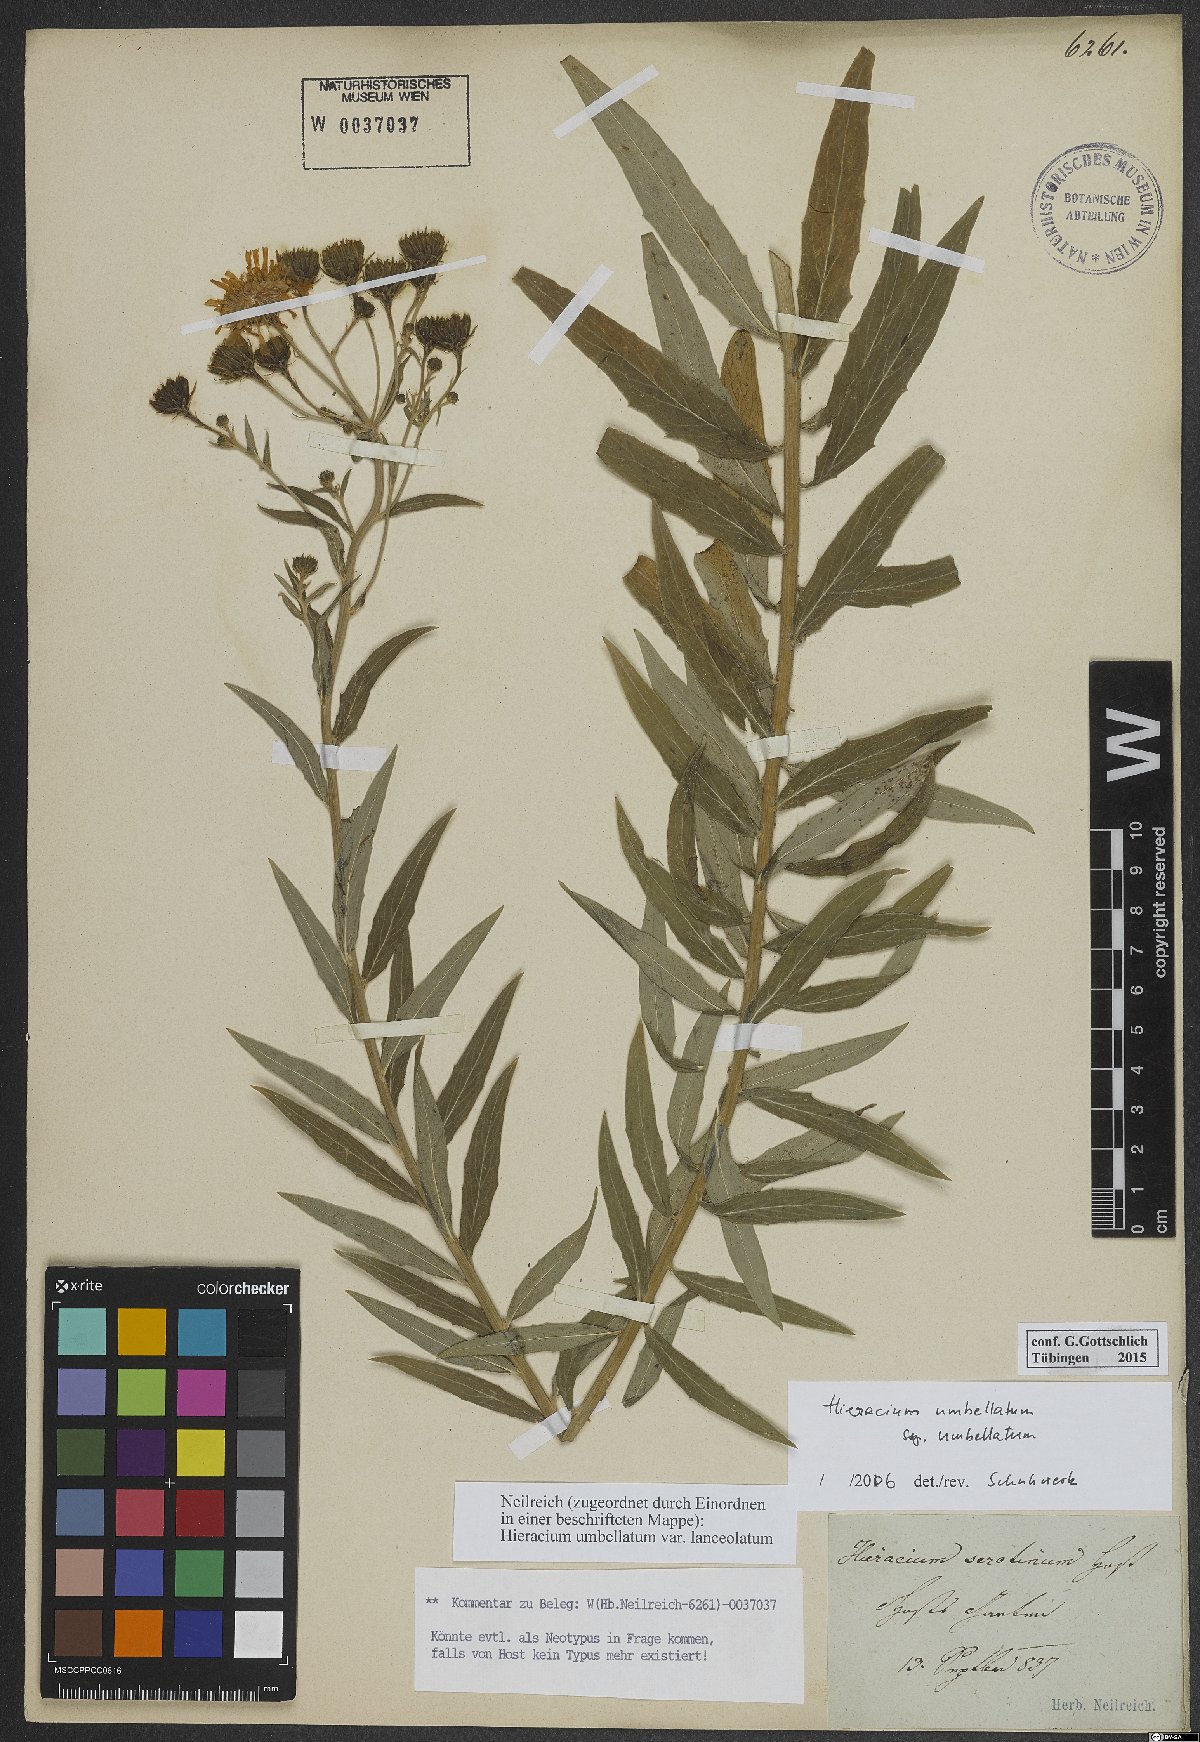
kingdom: Plantae
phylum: Tracheophyta
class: Magnoliopsida
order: Asterales
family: Asteraceae
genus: Hieracium
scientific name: Hieracium umbellatum
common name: Northern hawkweed
